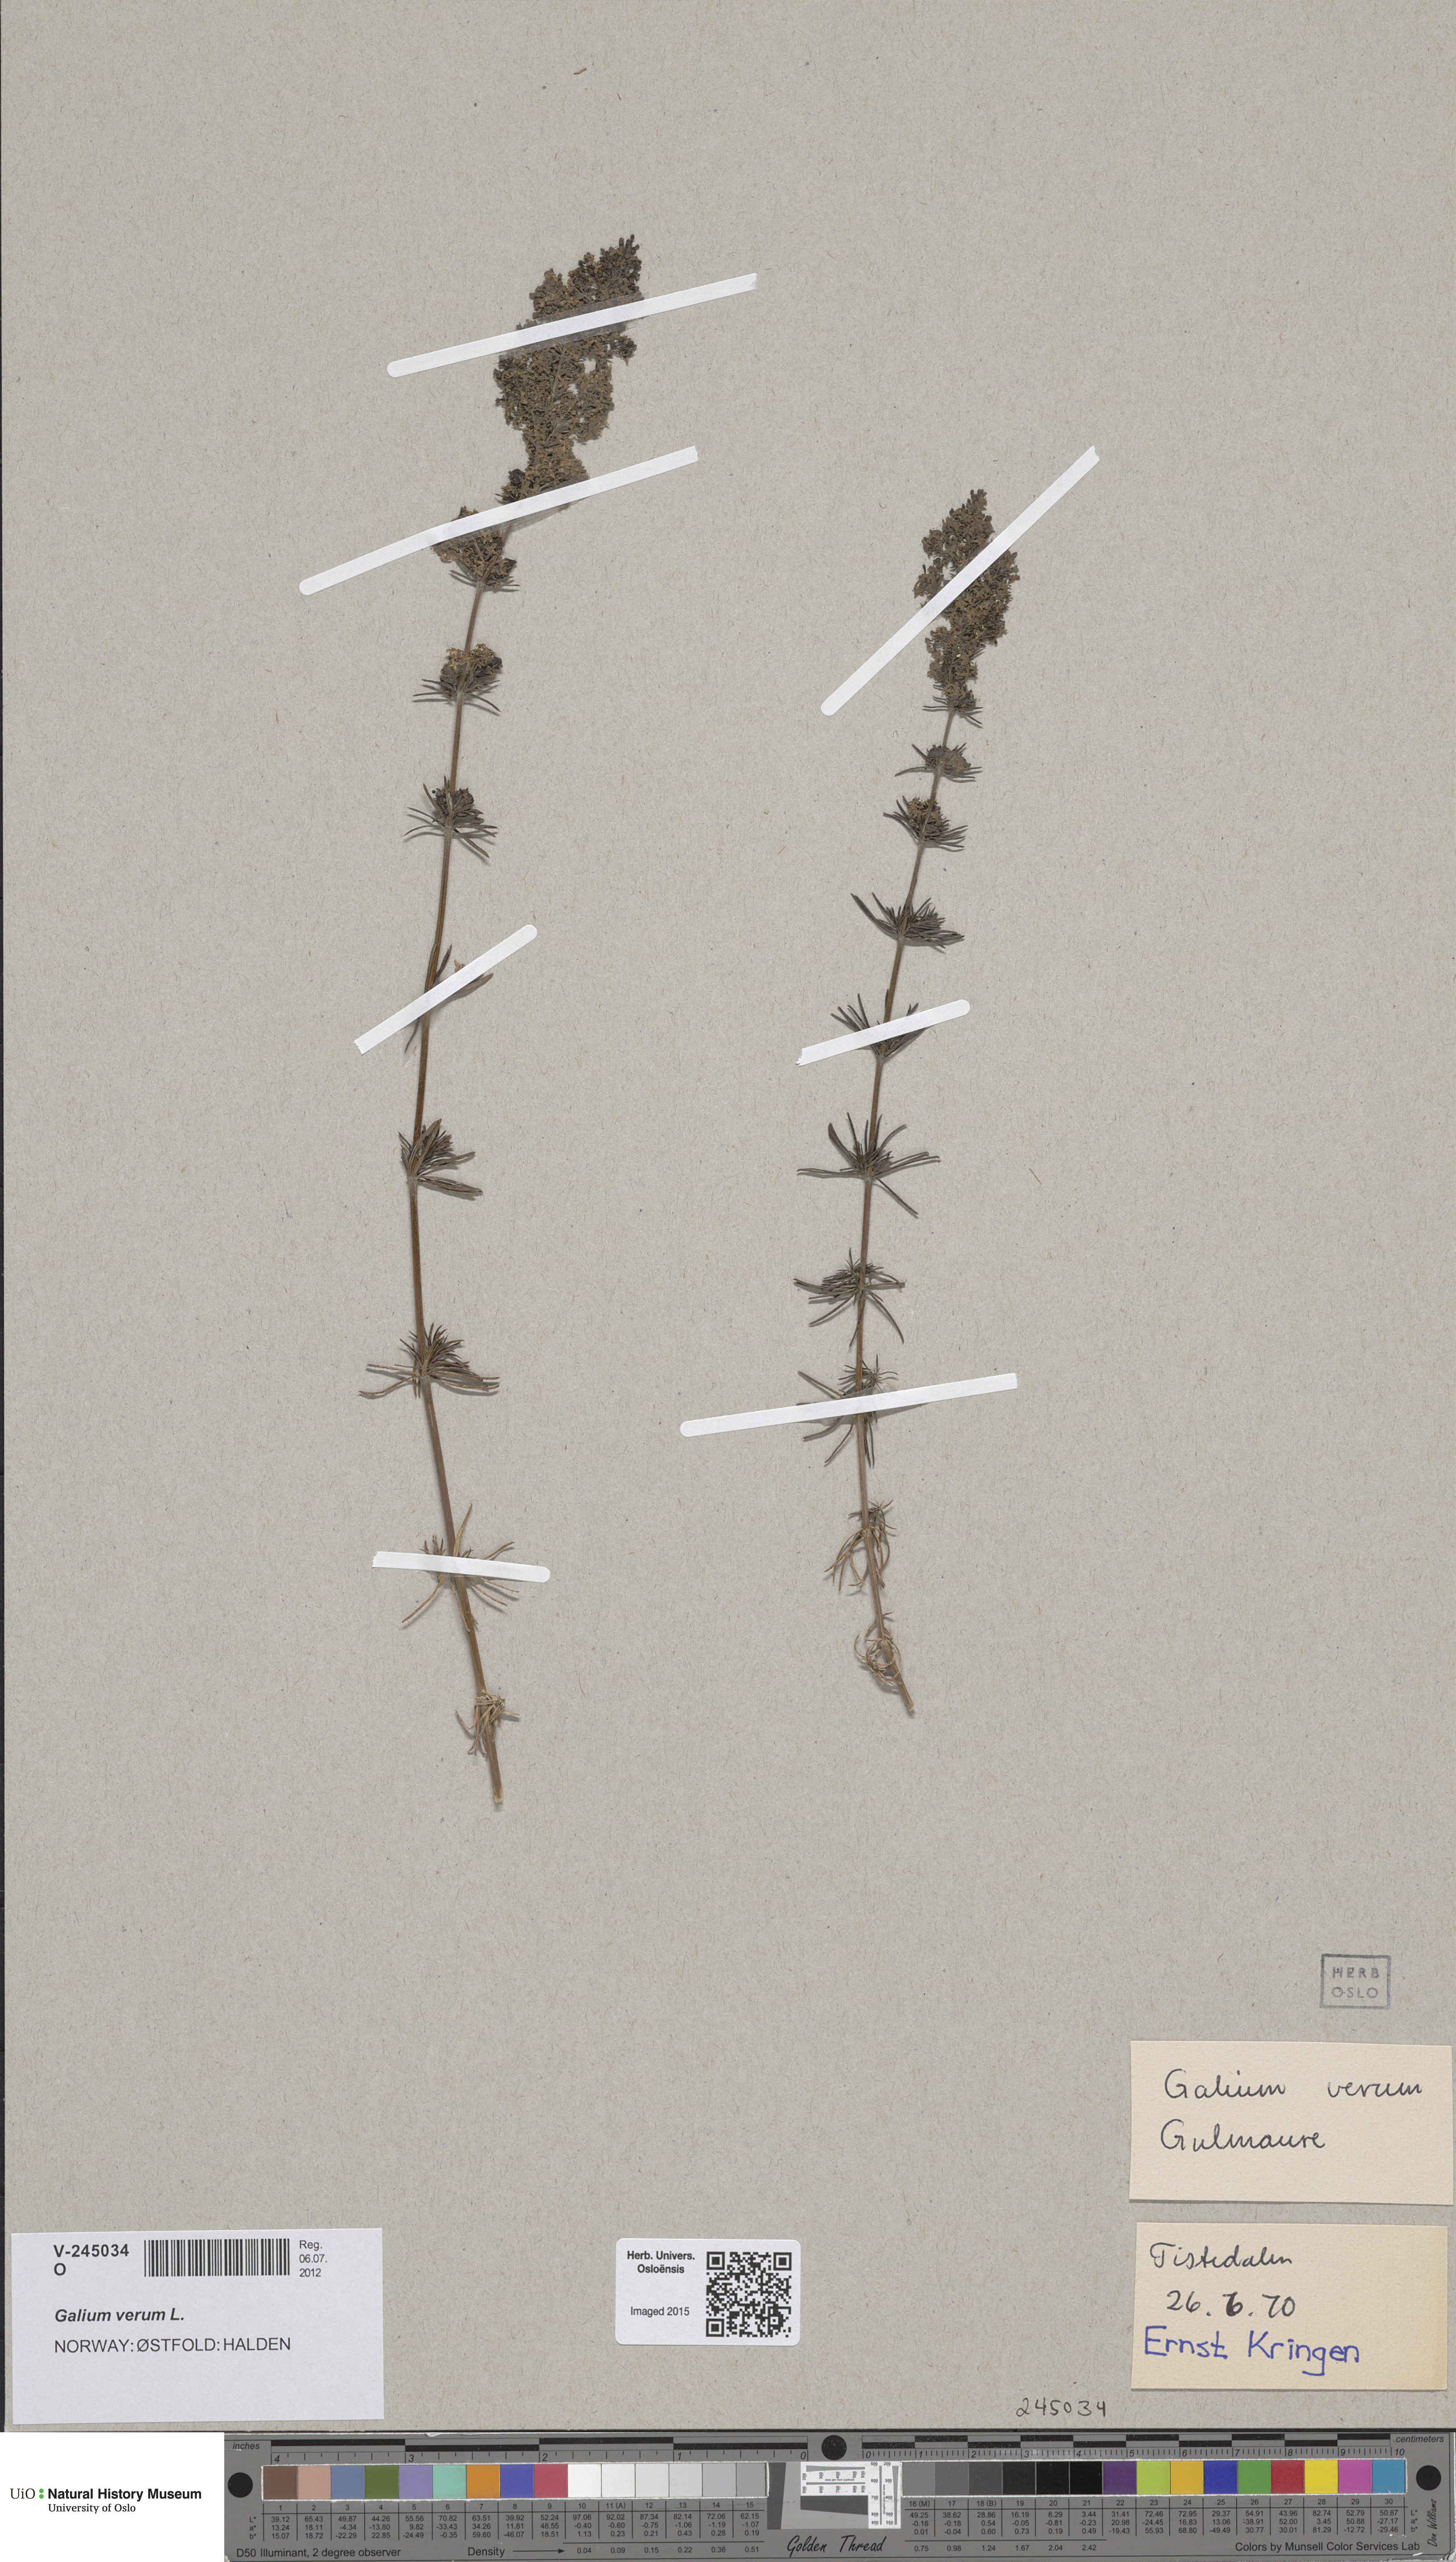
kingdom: Plantae
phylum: Tracheophyta
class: Magnoliopsida
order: Gentianales
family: Rubiaceae
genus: Galium
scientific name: Galium verum
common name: Lady's bedstraw
